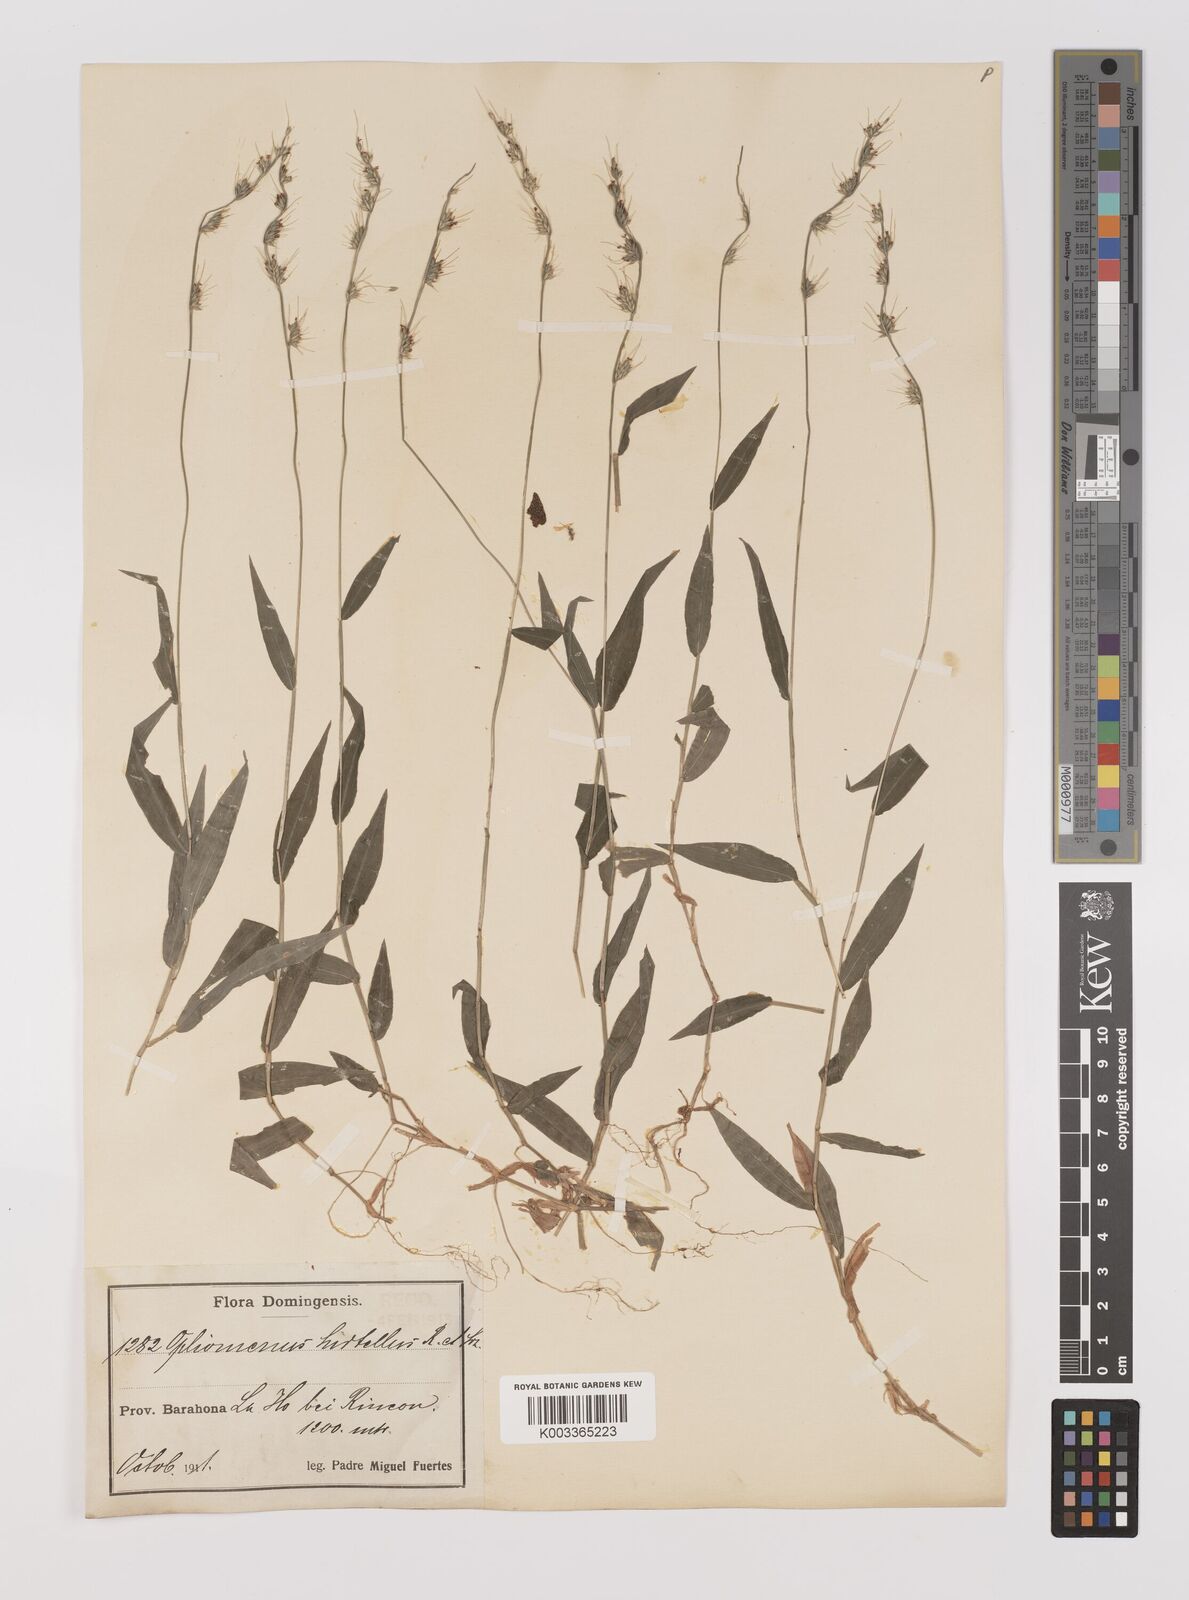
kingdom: Plantae
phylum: Tracheophyta
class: Liliopsida
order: Poales
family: Poaceae
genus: Oplismenus
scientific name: Oplismenus hirtellus
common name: Basketgrass
